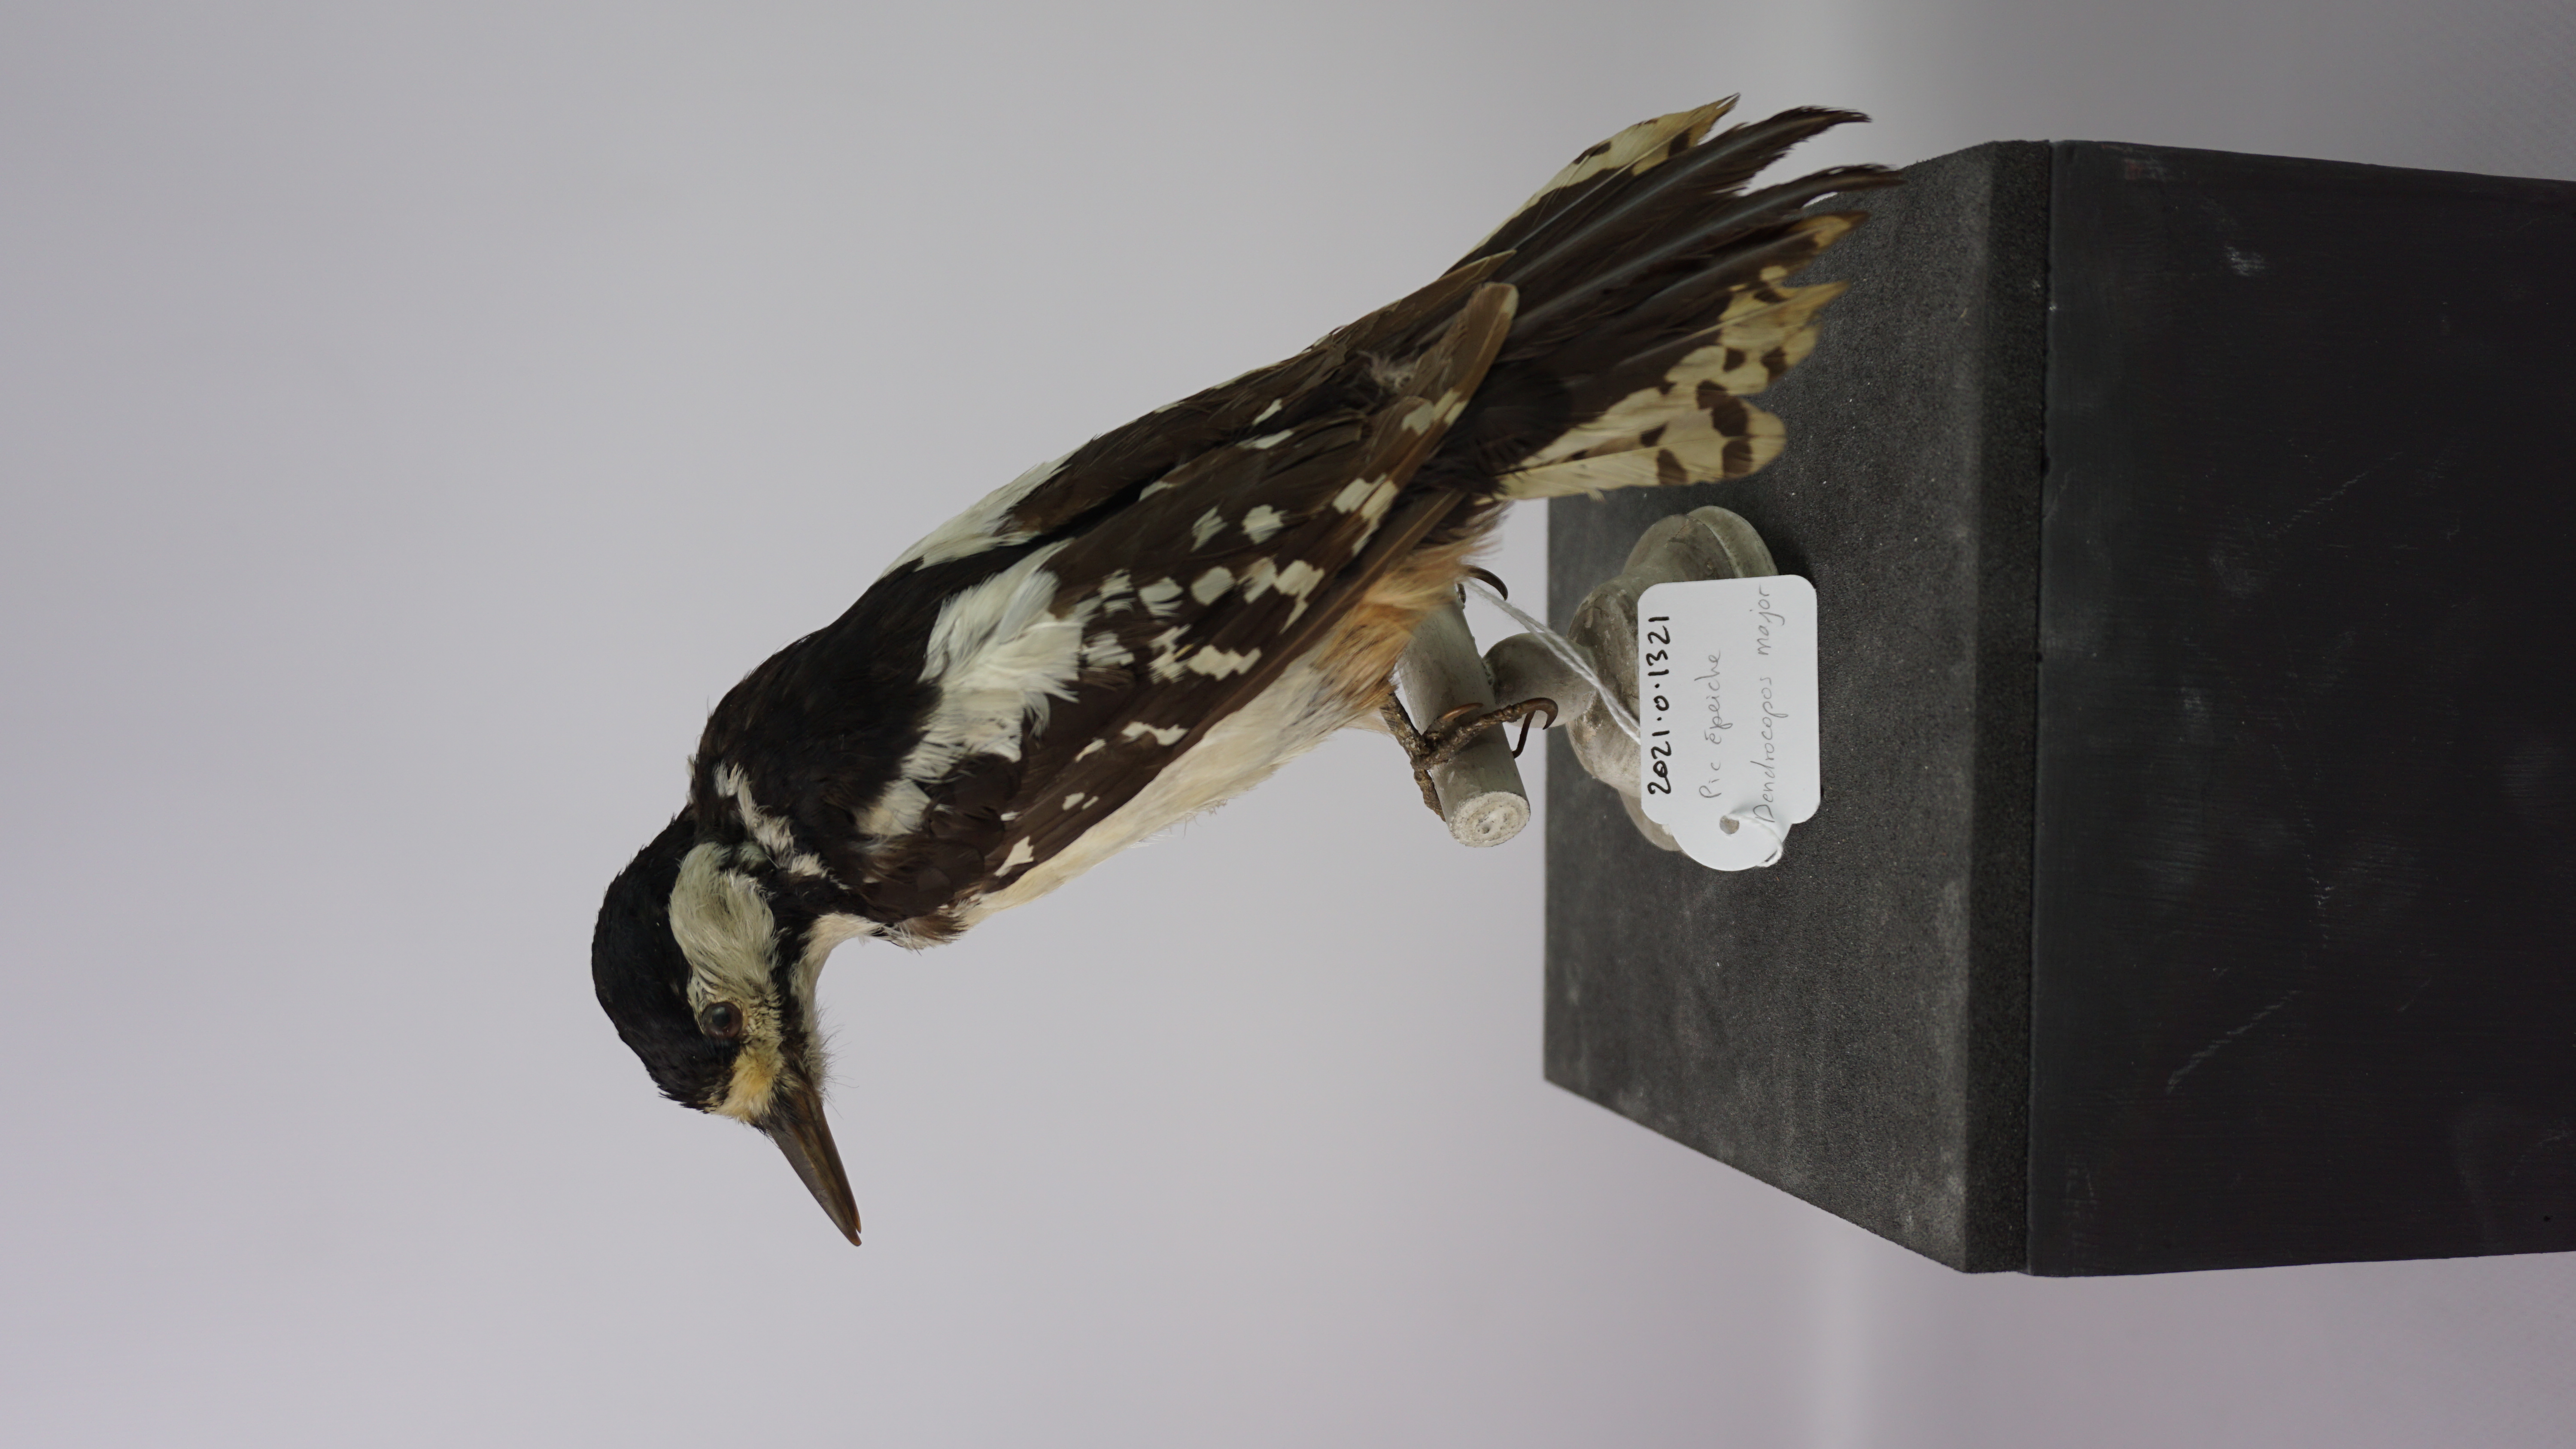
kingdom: Animalia
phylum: Chordata
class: Aves
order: Piciformes
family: Picidae
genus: Dendrocopos
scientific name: Dendrocopos major
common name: Great spotted woodpecker
